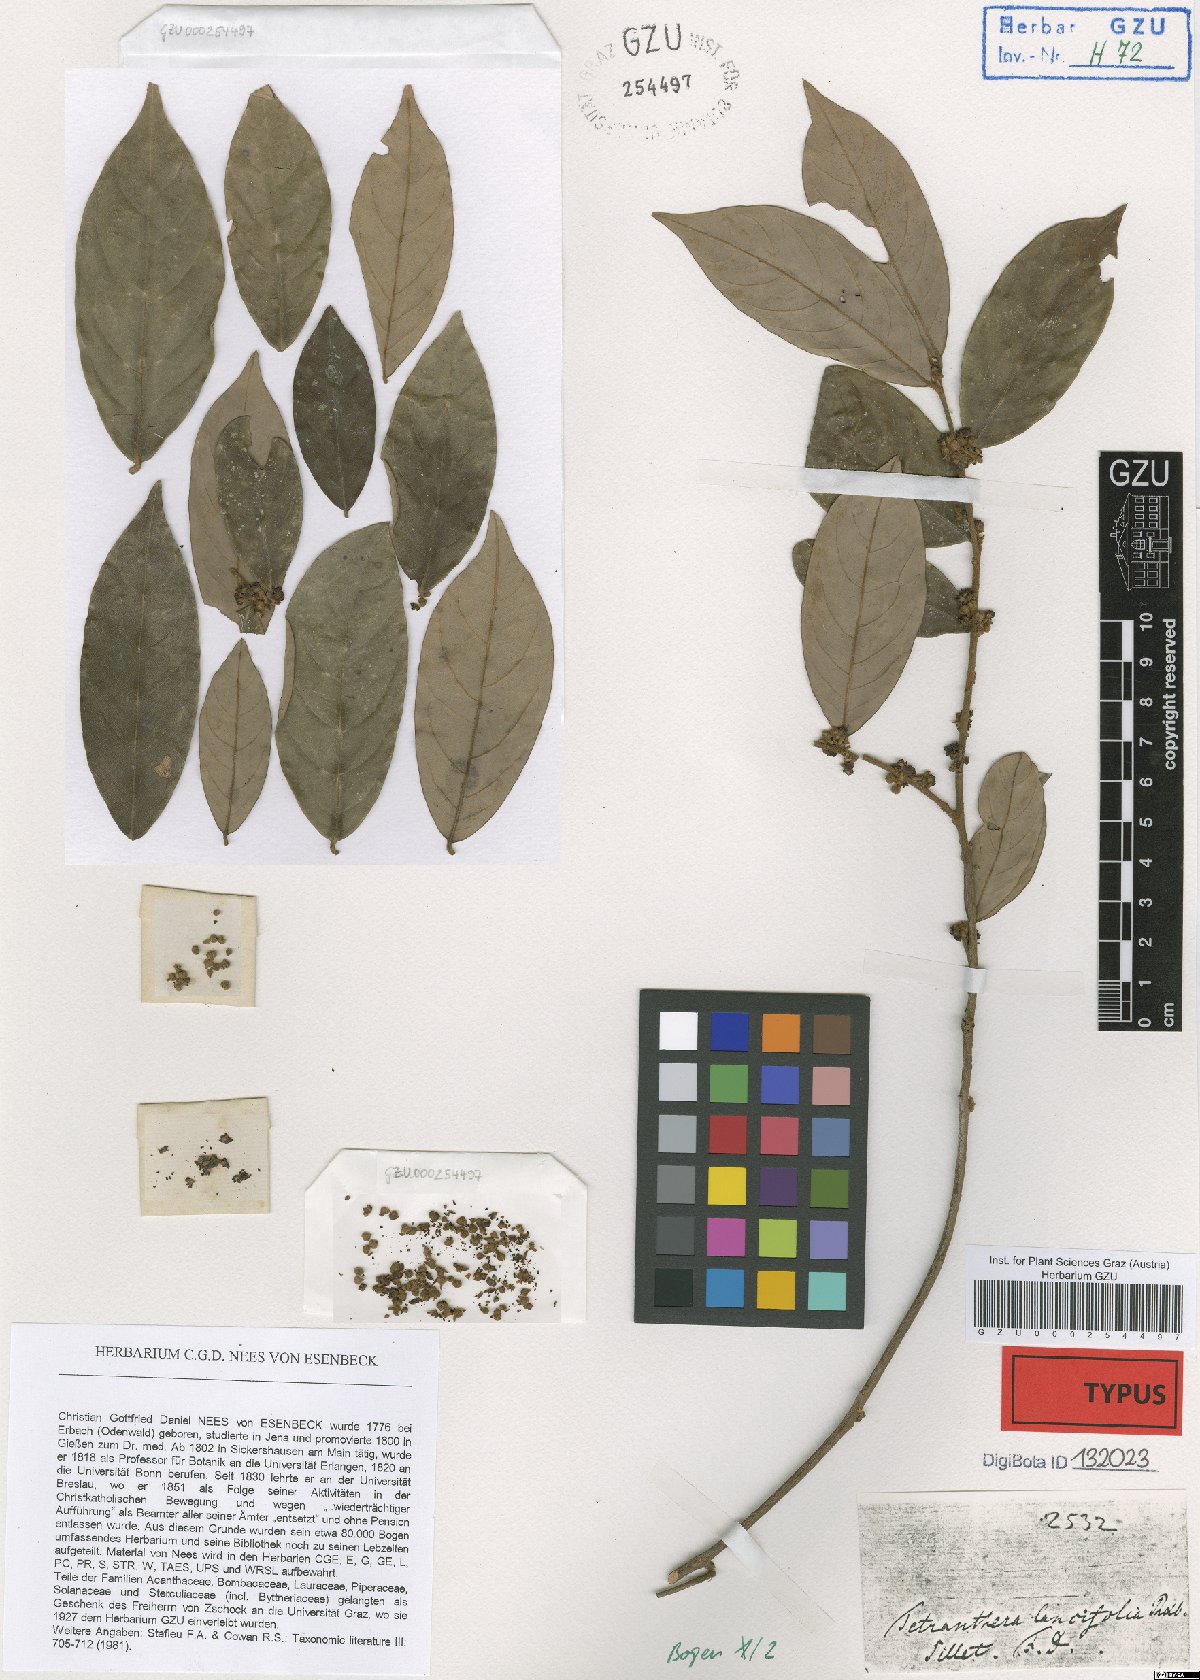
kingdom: Plantae
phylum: Tracheophyta
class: Magnoliopsida
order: Laurales
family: Lauraceae
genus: Litsea
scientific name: Litsea lancifolia
